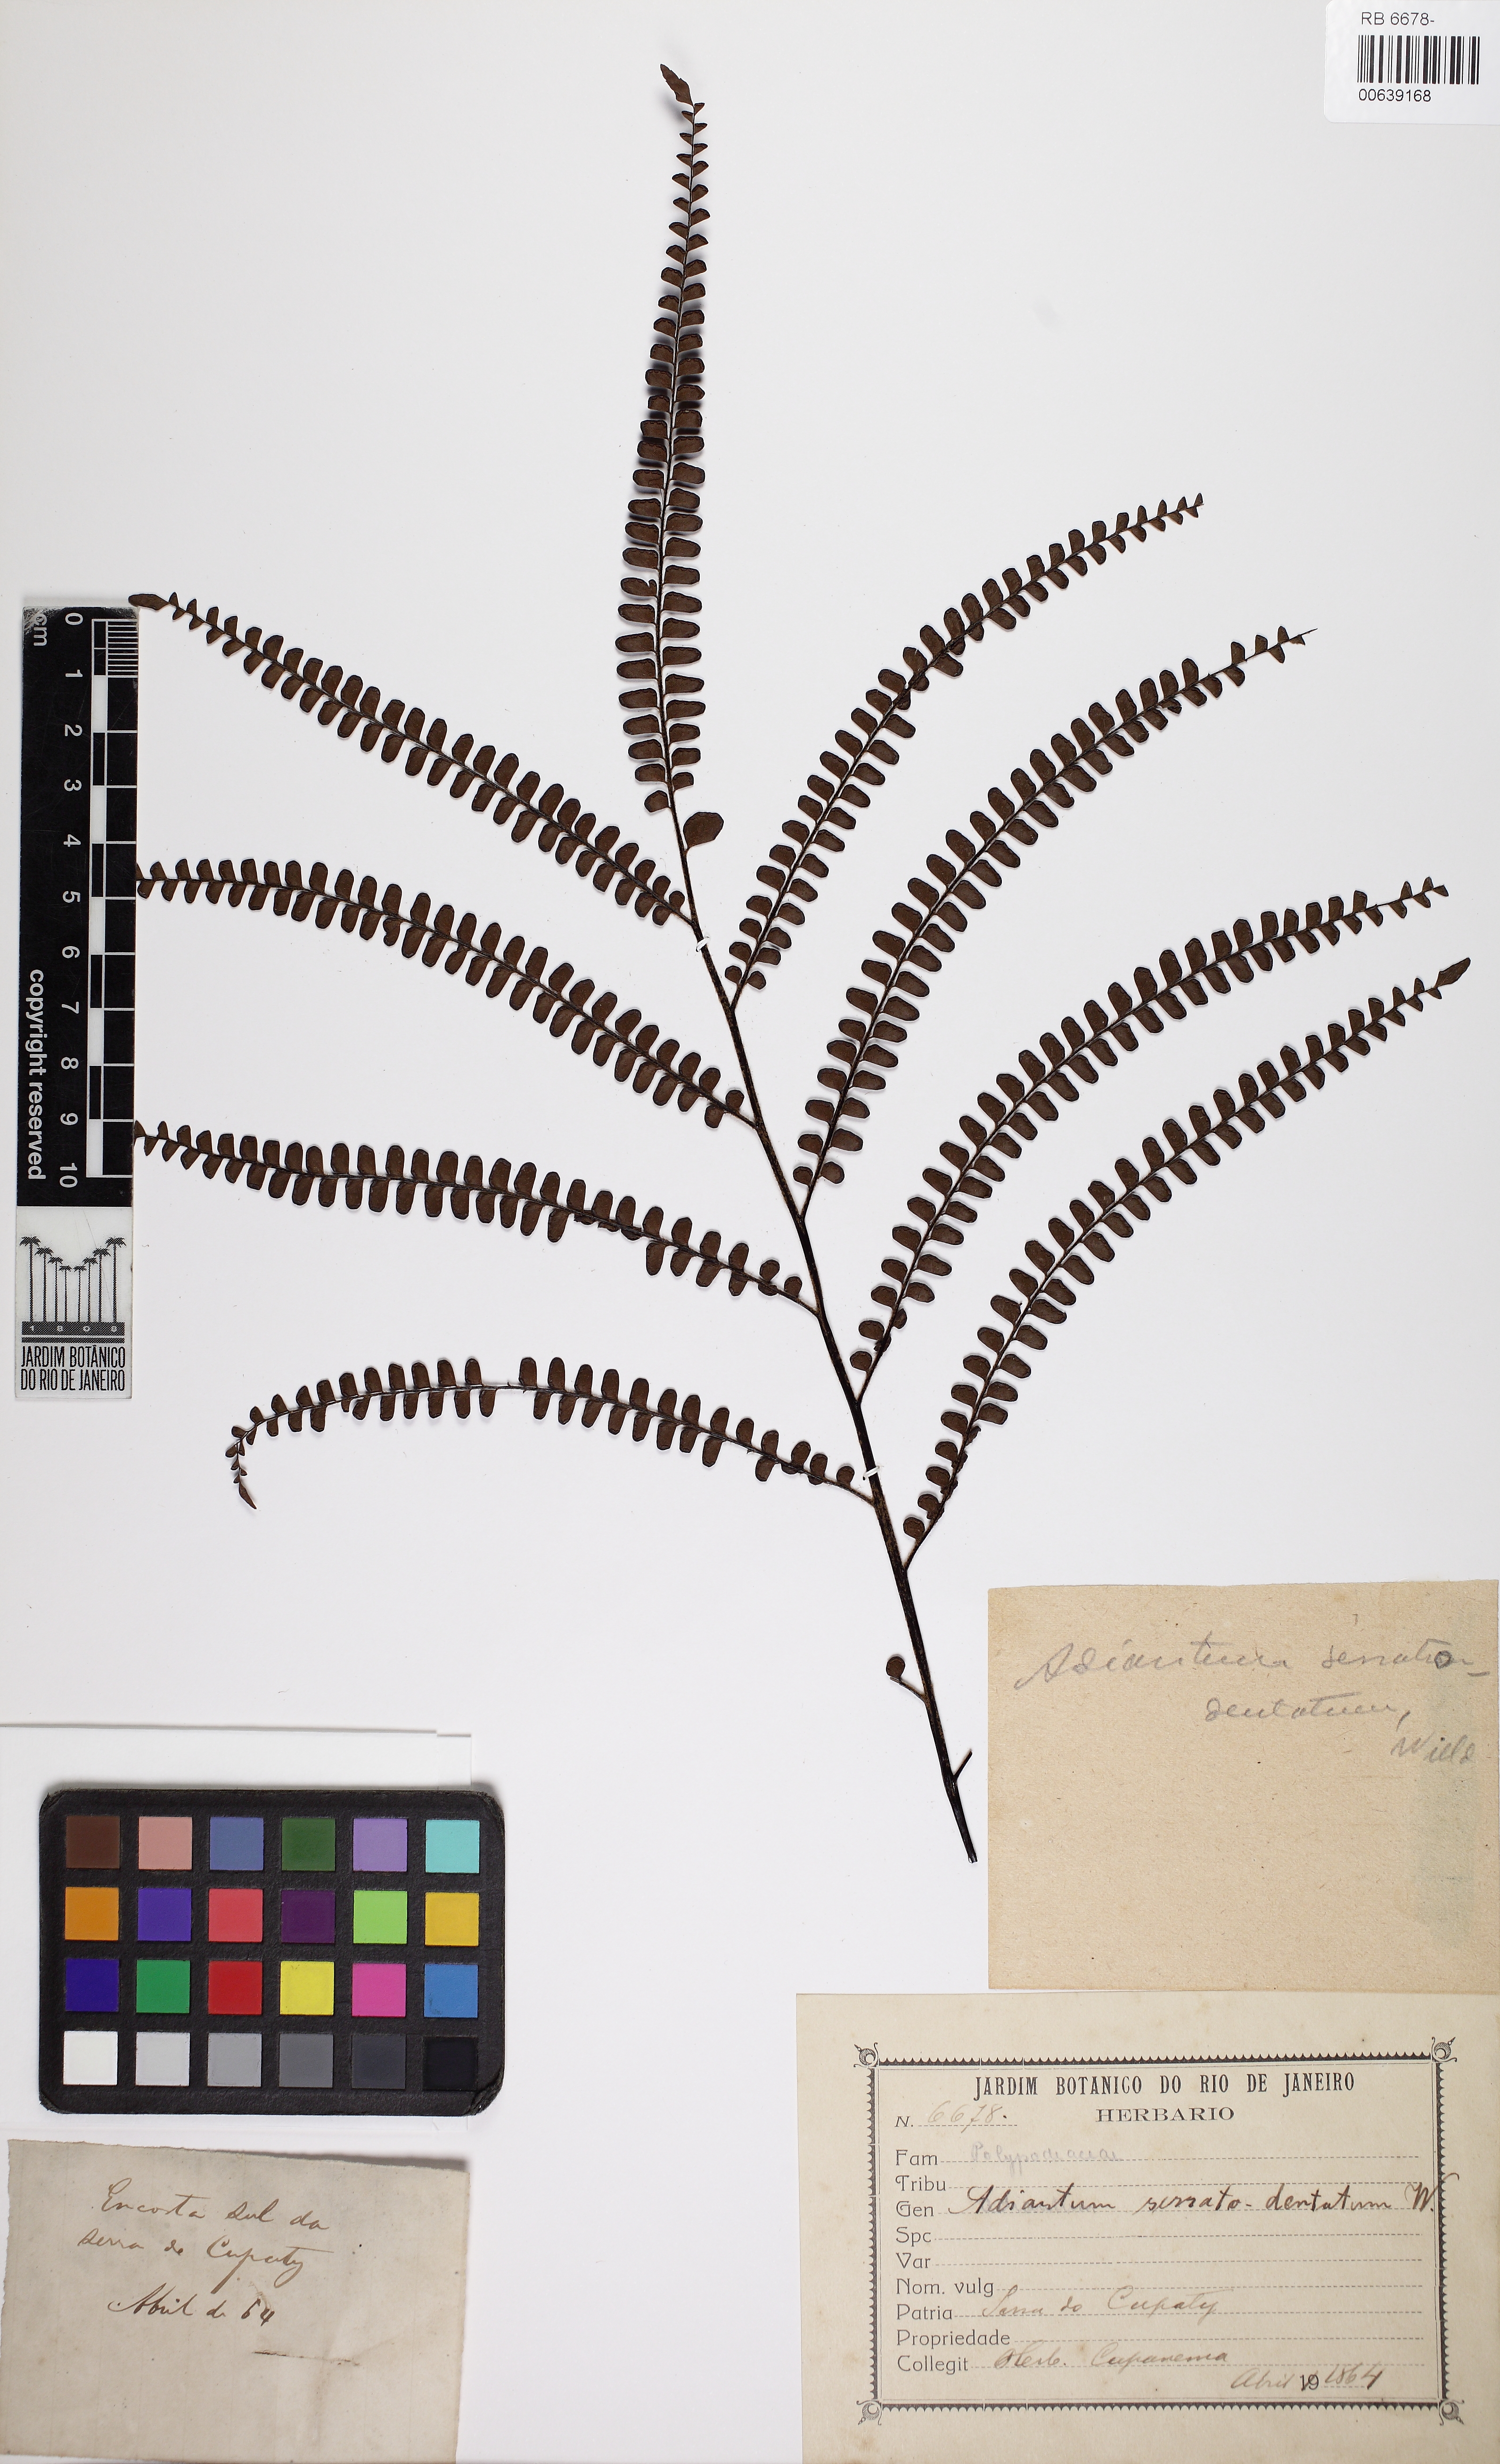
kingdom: Plantae
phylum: Tracheophyta
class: Polypodiopsida
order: Polypodiales
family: Pteridaceae
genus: Adiantum
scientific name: Adiantum serratodentatum
